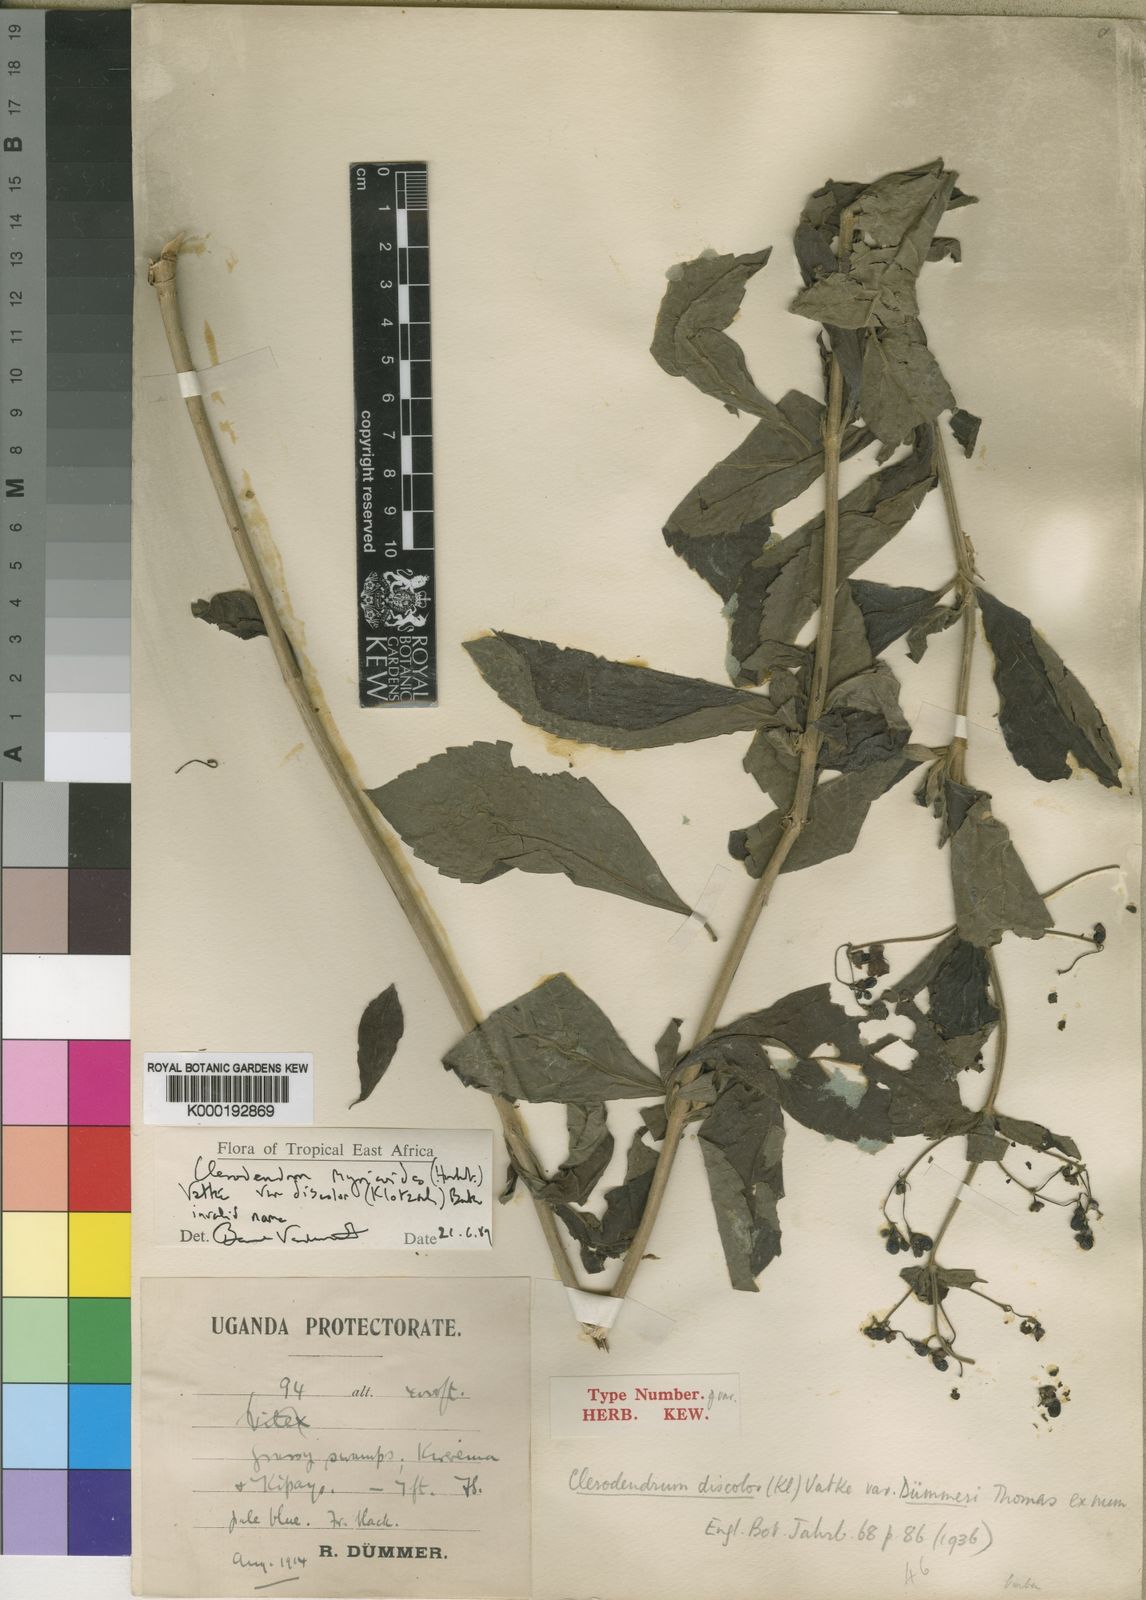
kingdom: Plantae
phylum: Tracheophyta
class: Magnoliopsida
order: Lamiales
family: Lamiaceae
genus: Rotheca
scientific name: Rotheca myricoides
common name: Cats-whiskers
